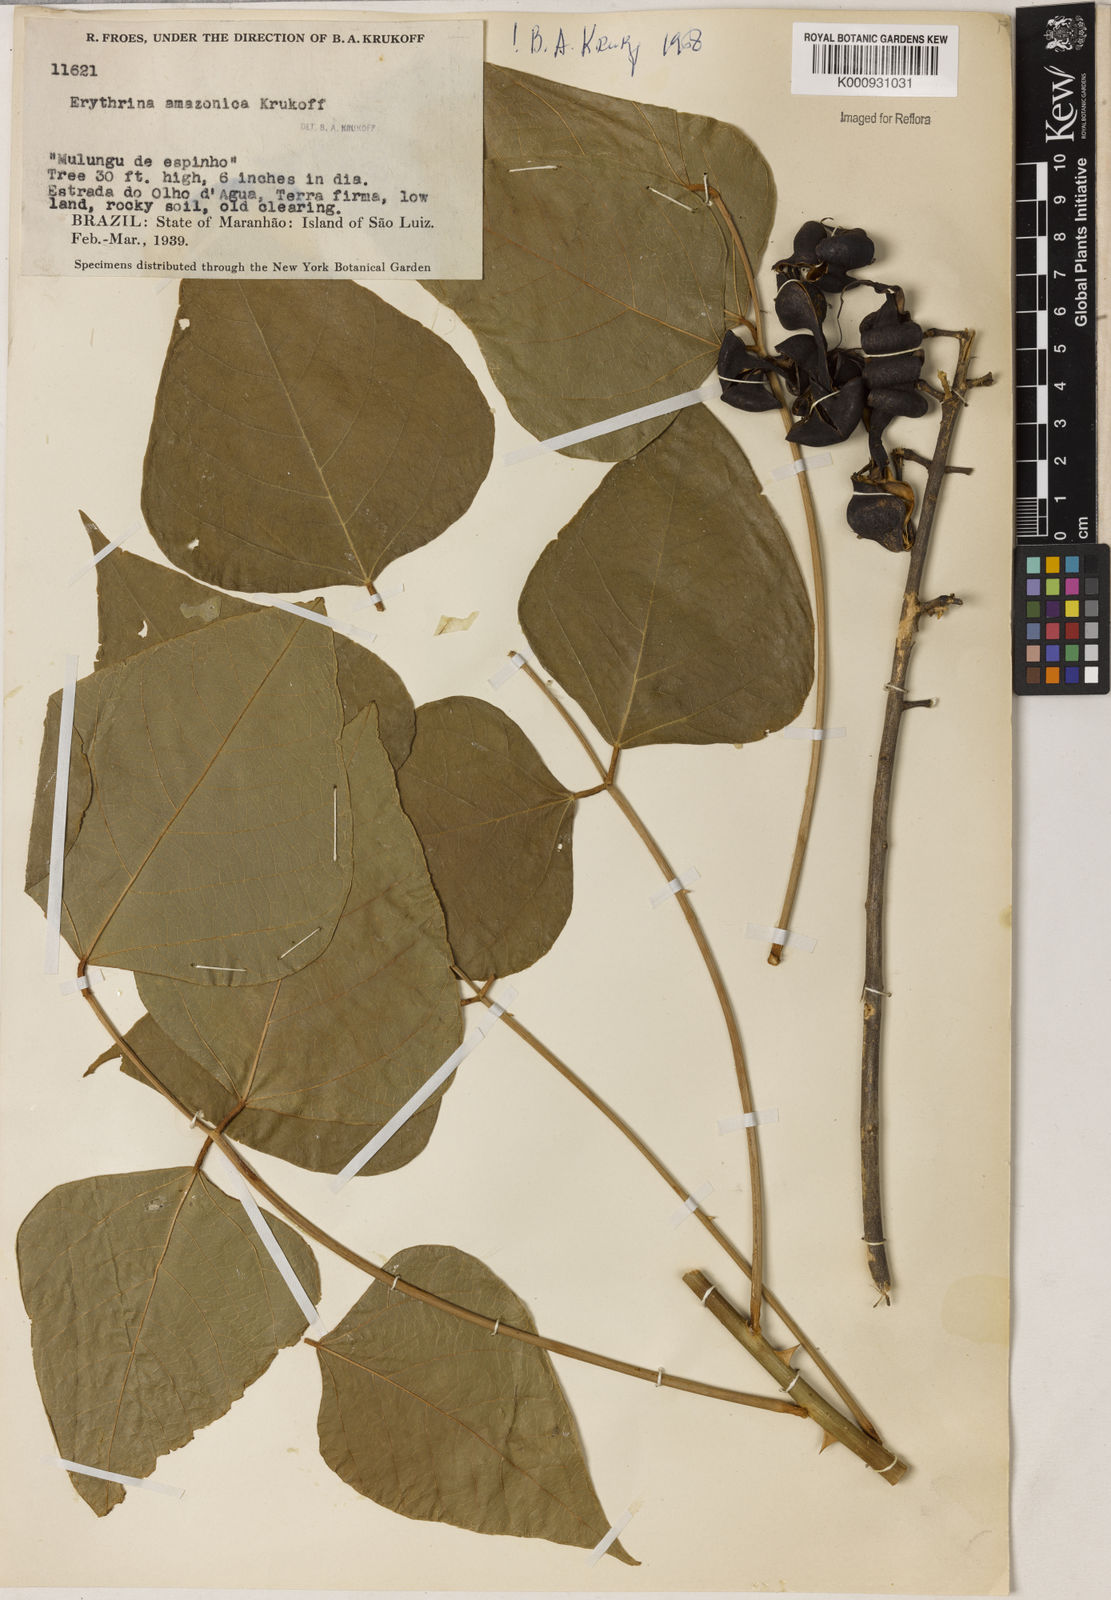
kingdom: Plantae
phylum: Tracheophyta
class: Magnoliopsida
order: Fabales
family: Fabaceae
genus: Erythrina
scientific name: Erythrina amazonica
